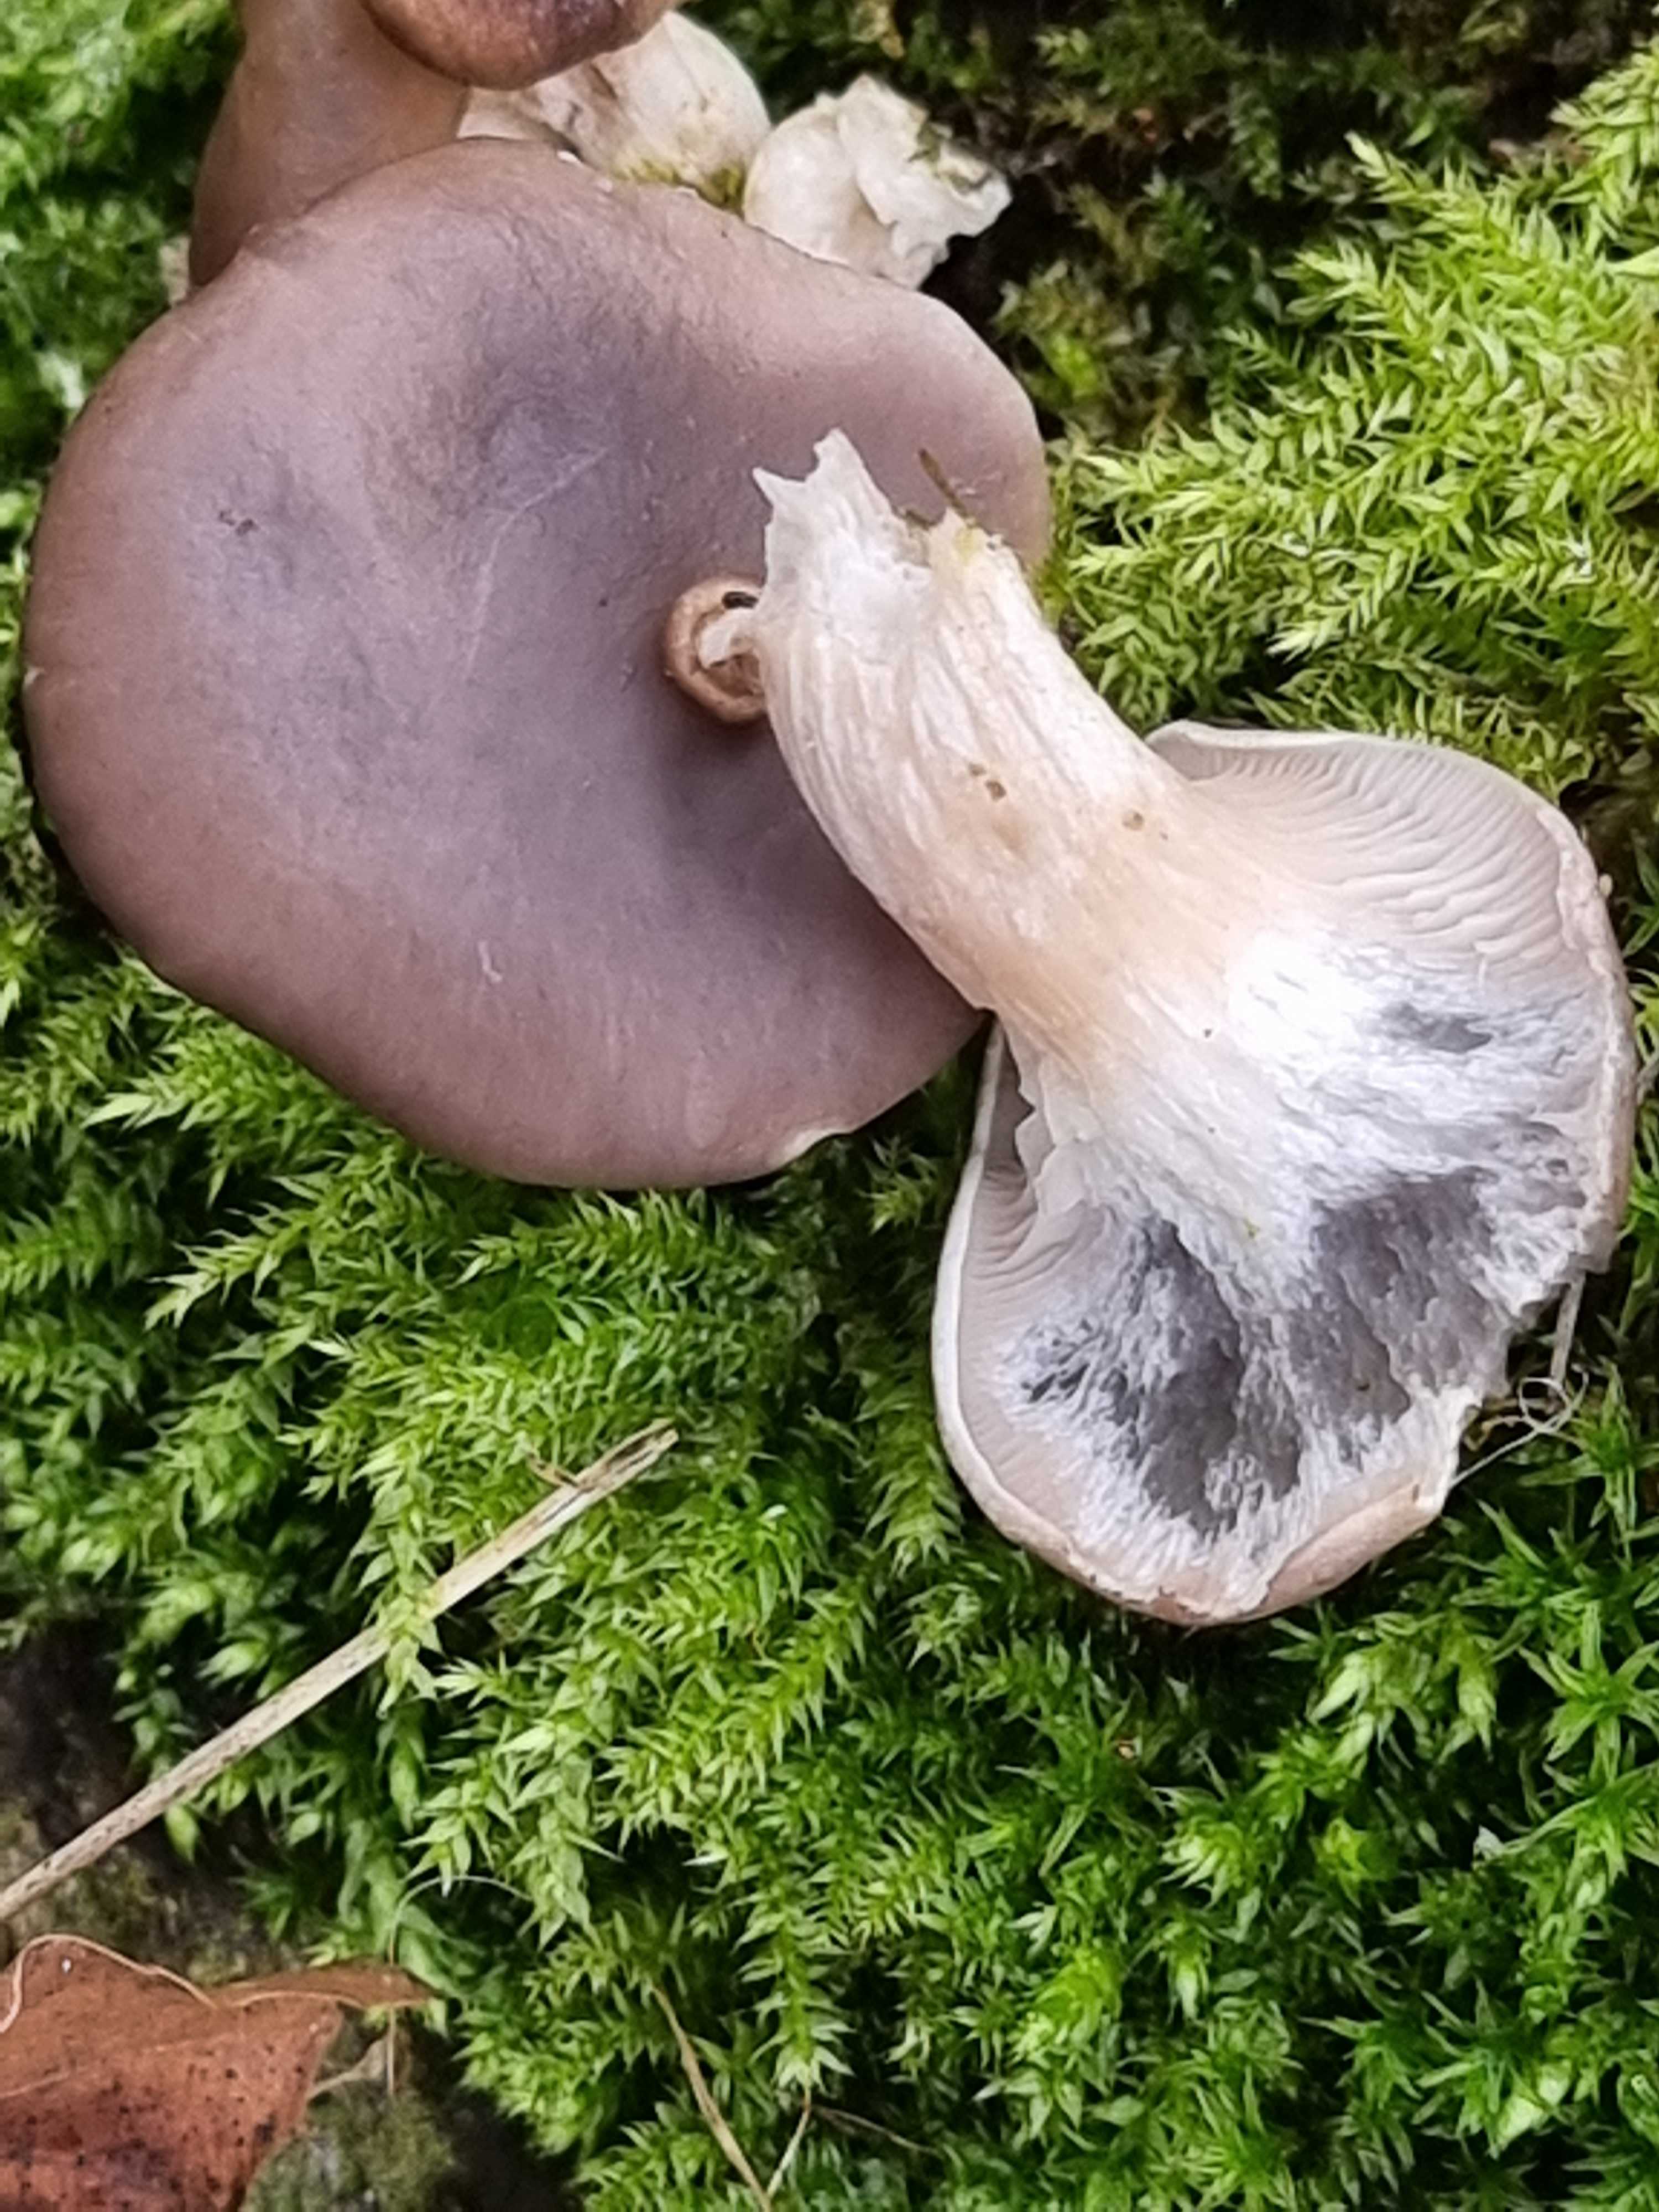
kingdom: Fungi
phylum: Basidiomycota
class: Agaricomycetes
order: Agaricales
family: Pleurotaceae
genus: Pleurotus
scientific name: Pleurotus ostreatus
